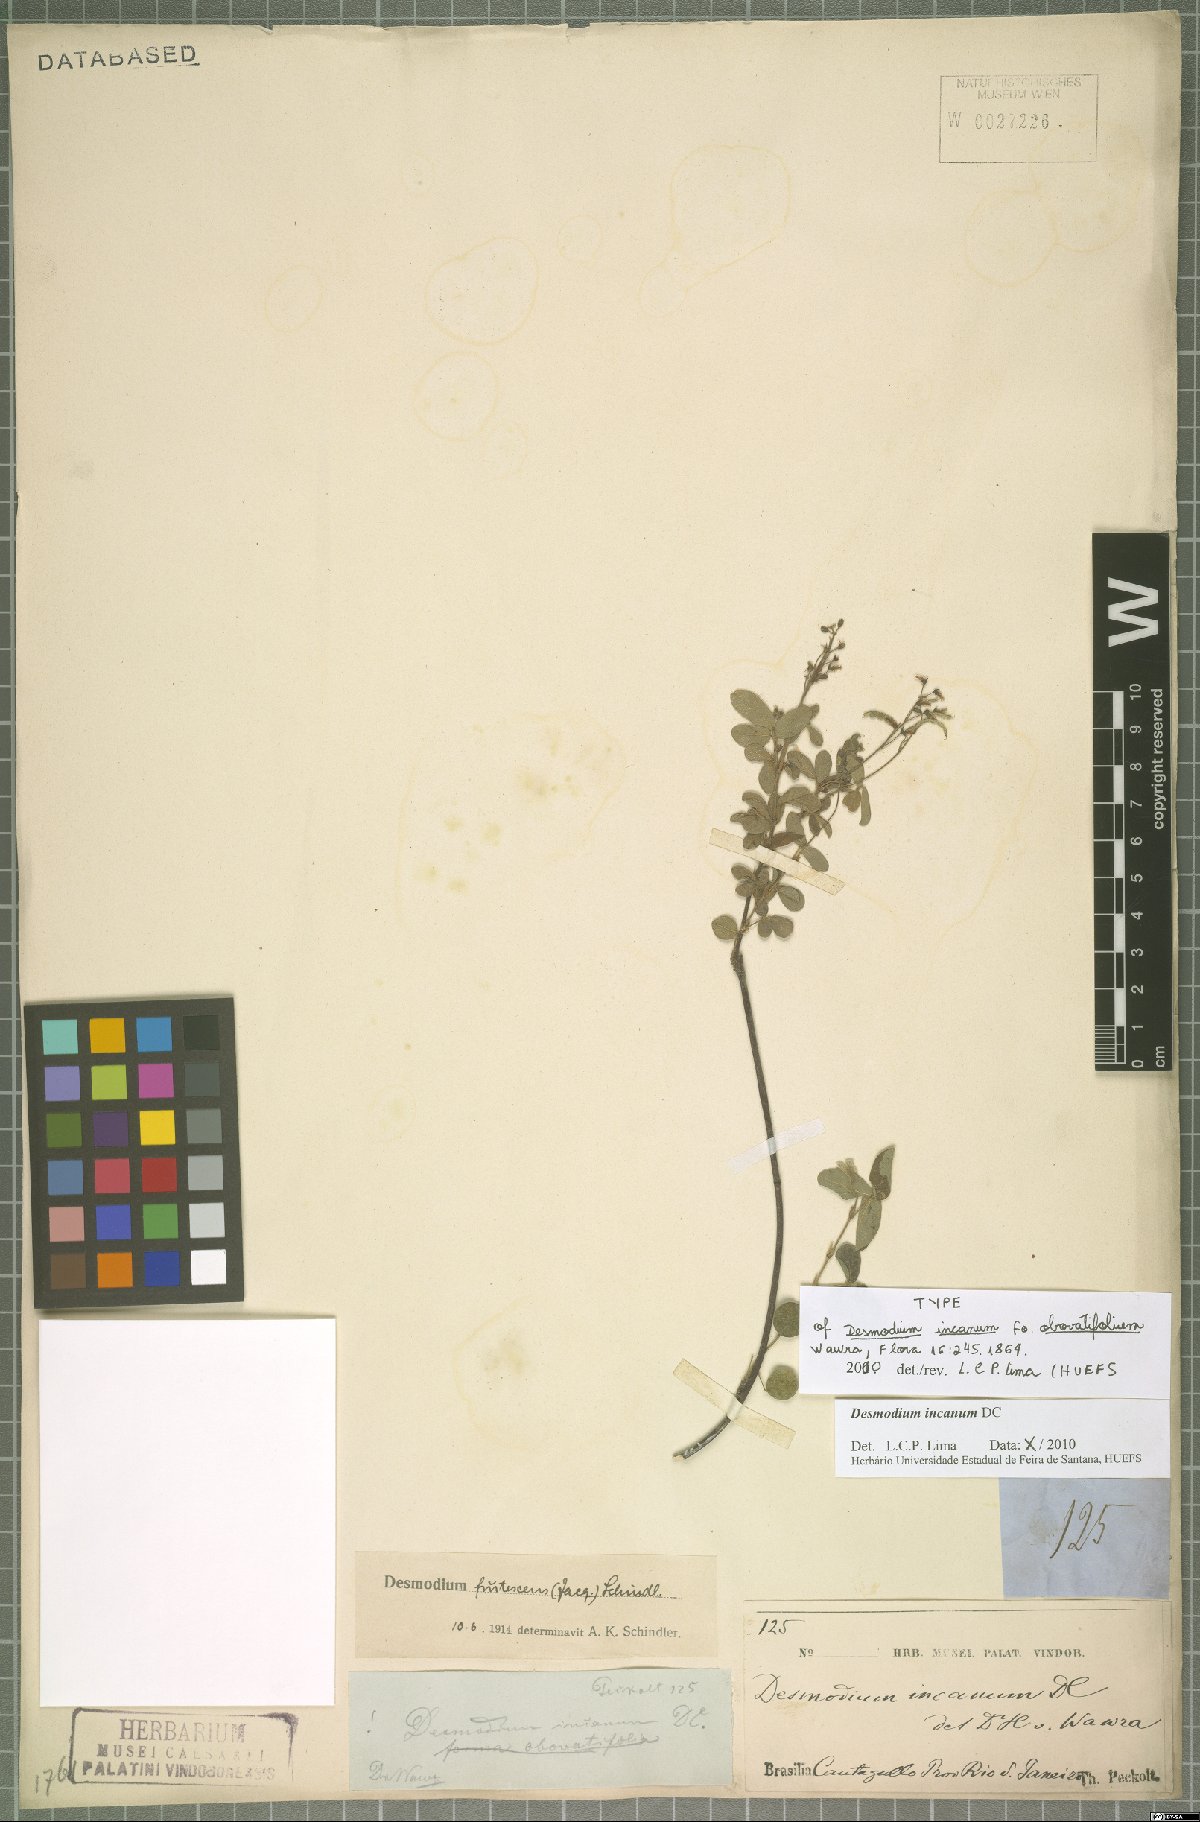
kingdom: Plantae
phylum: Tracheophyta
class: Magnoliopsida
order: Fabales
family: Fabaceae
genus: Desmodium
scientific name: Desmodium incanum
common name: Tickclover
